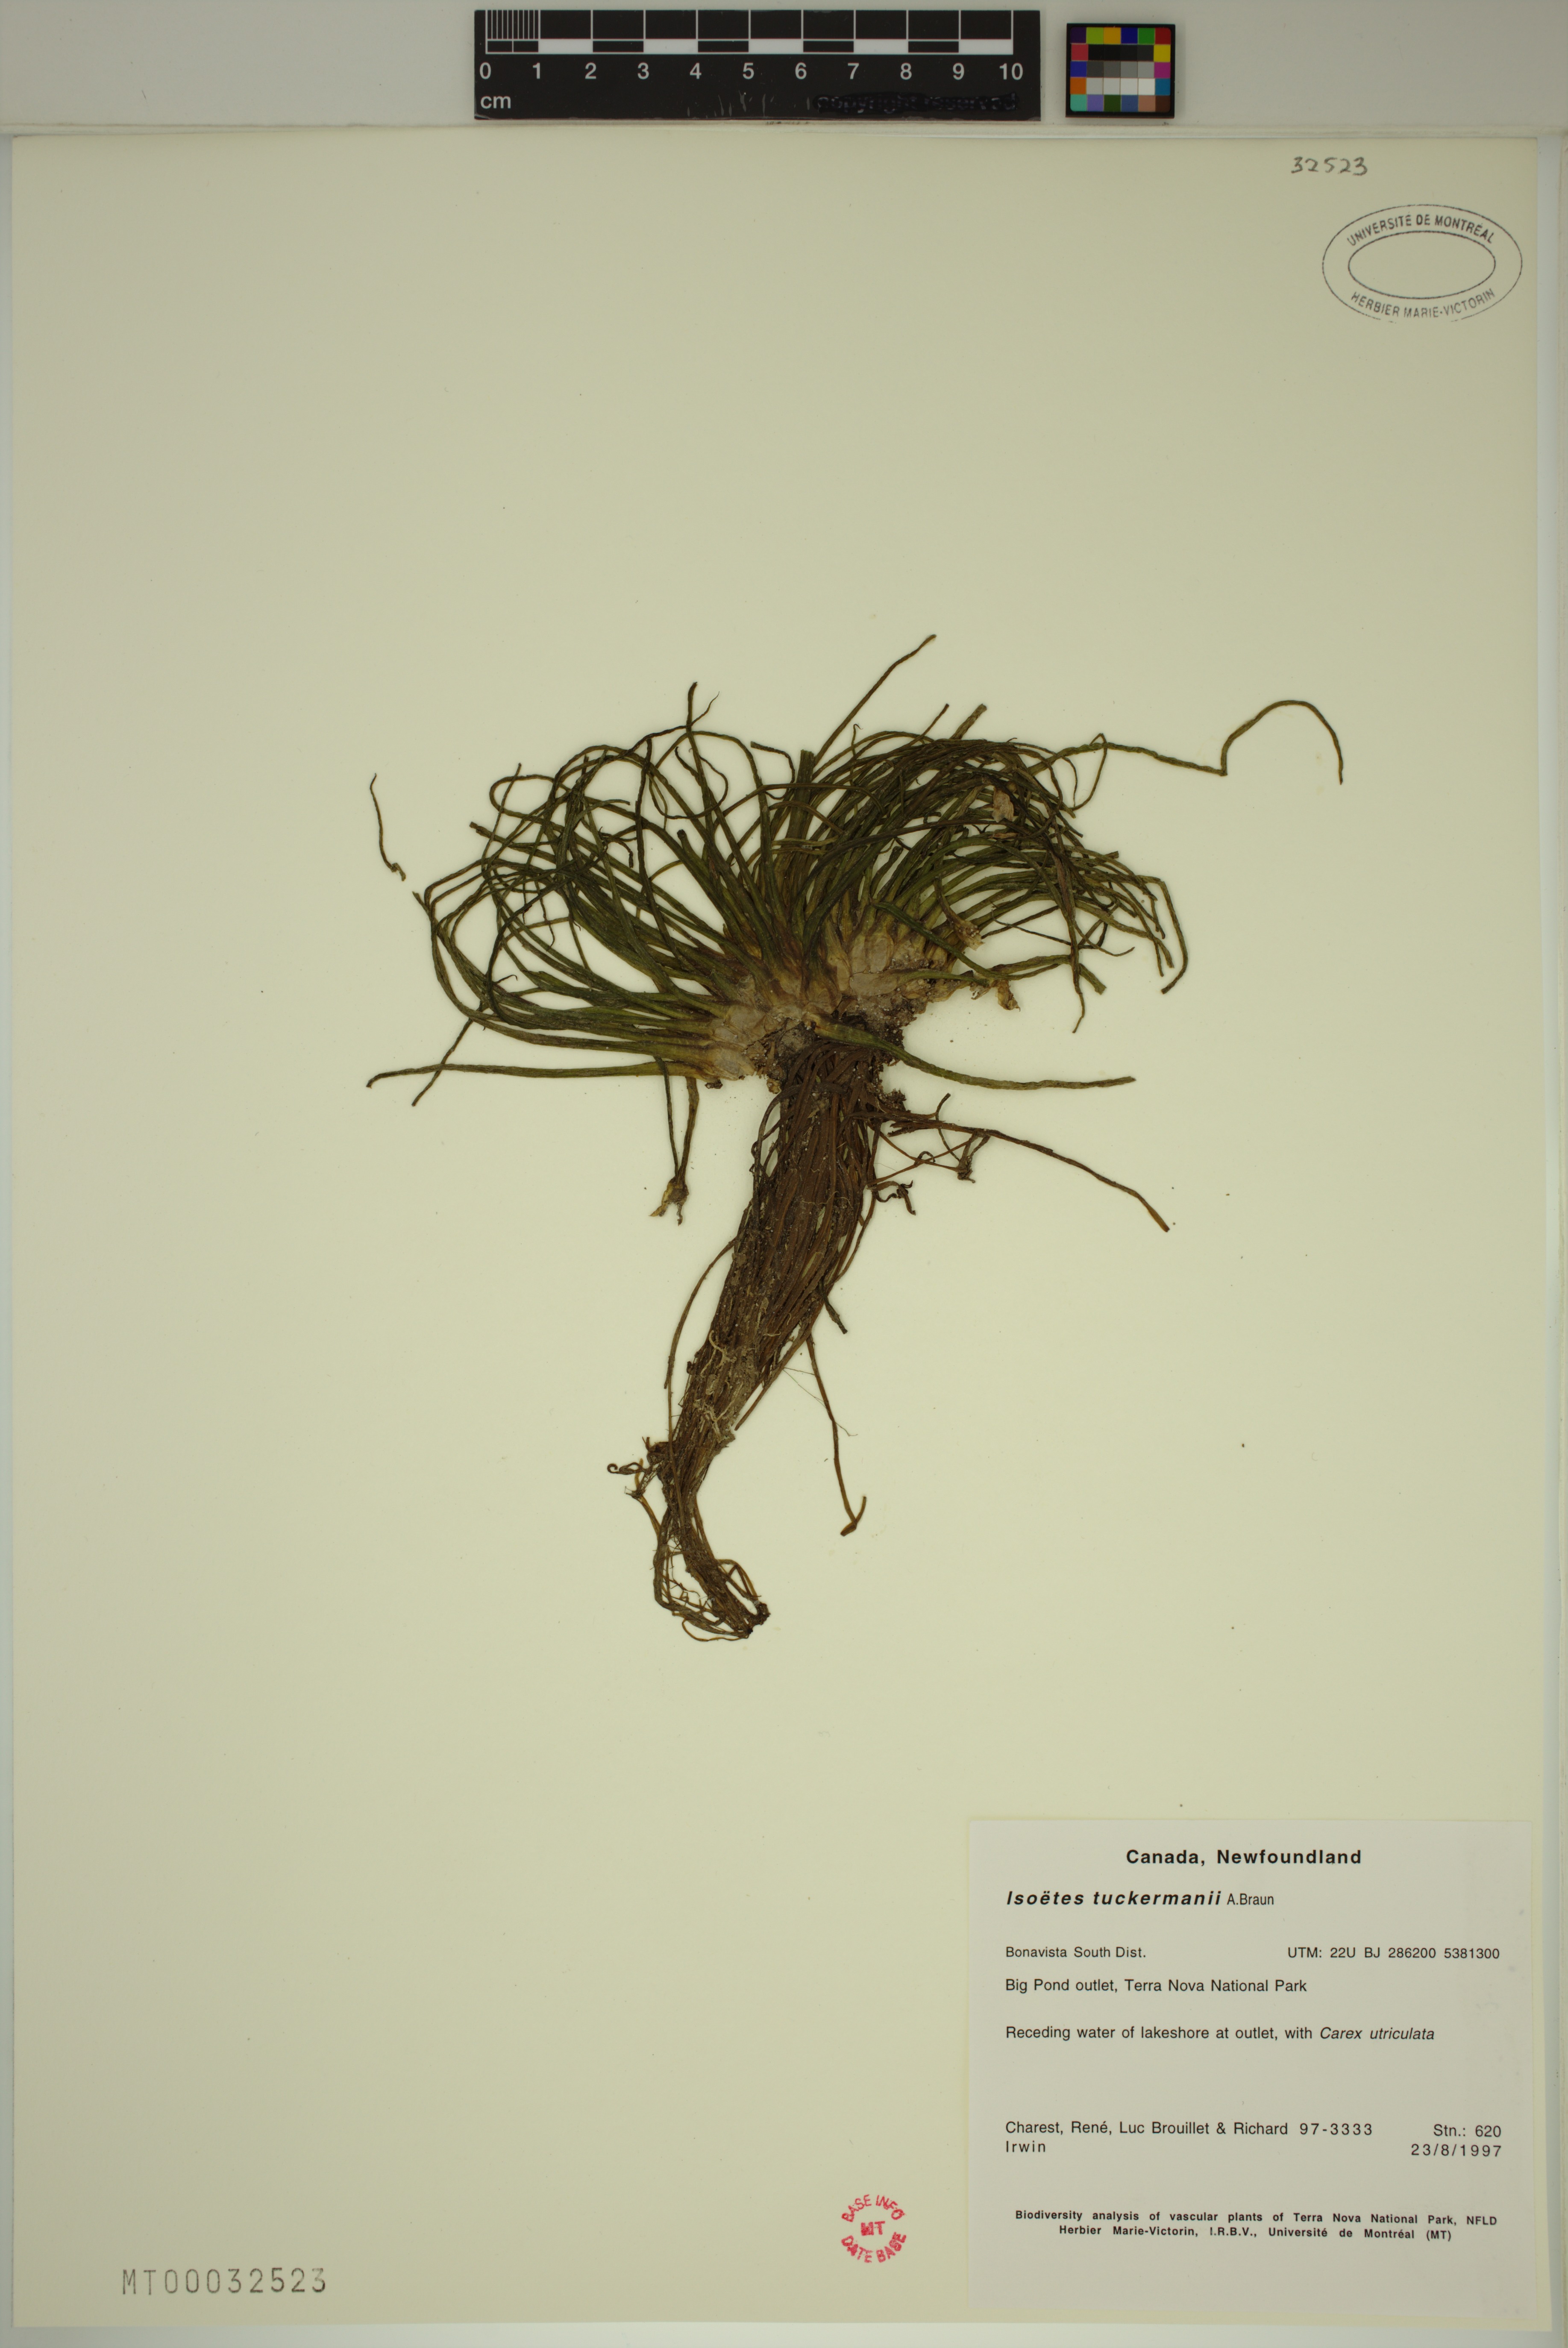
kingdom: Plantae
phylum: Tracheophyta
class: Lycopodiopsida
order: Isoetales
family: Isoetaceae
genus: Isoetes
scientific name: Isoetes harveyi
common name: Harvey's quillwort
